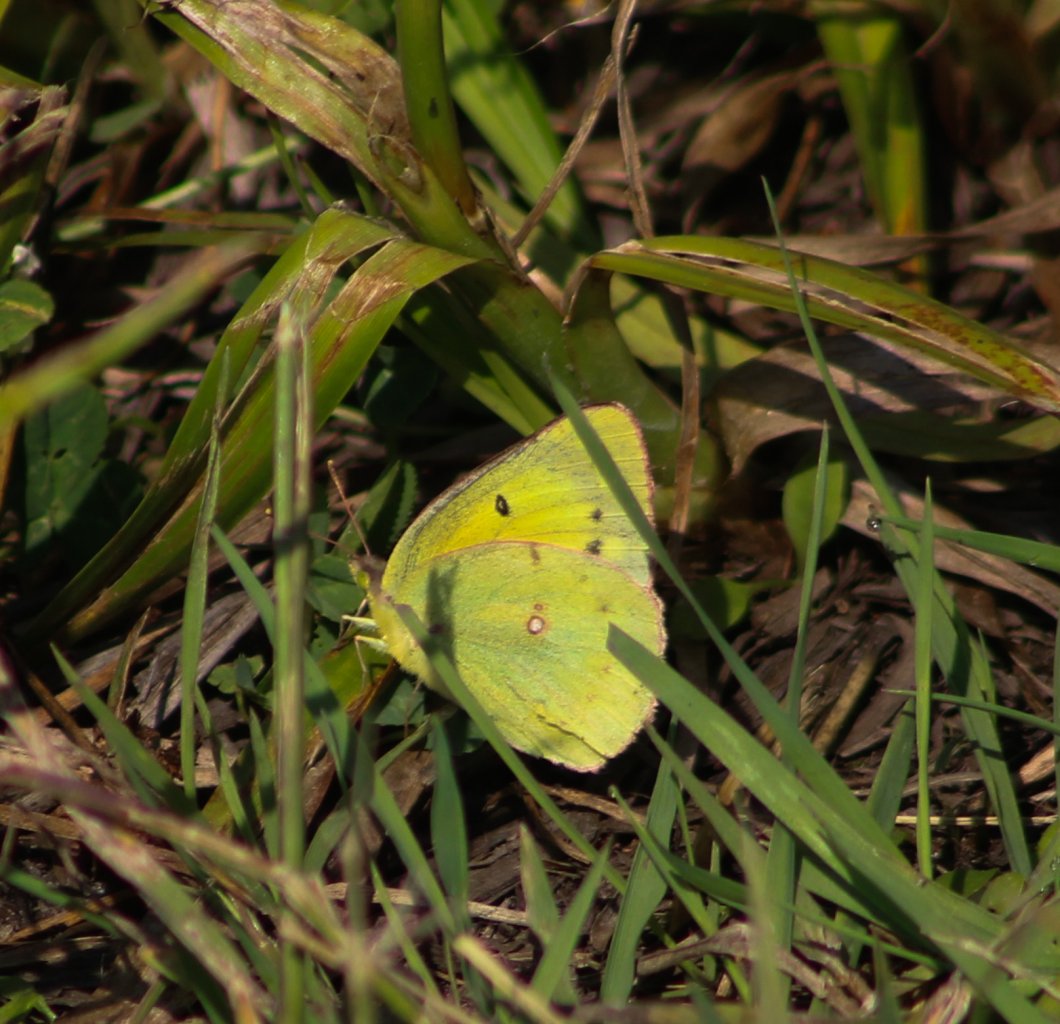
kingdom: Animalia
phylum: Arthropoda
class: Insecta
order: Lepidoptera
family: Pieridae
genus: Colias
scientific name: Colias philodice
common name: Clouded Sulphur
